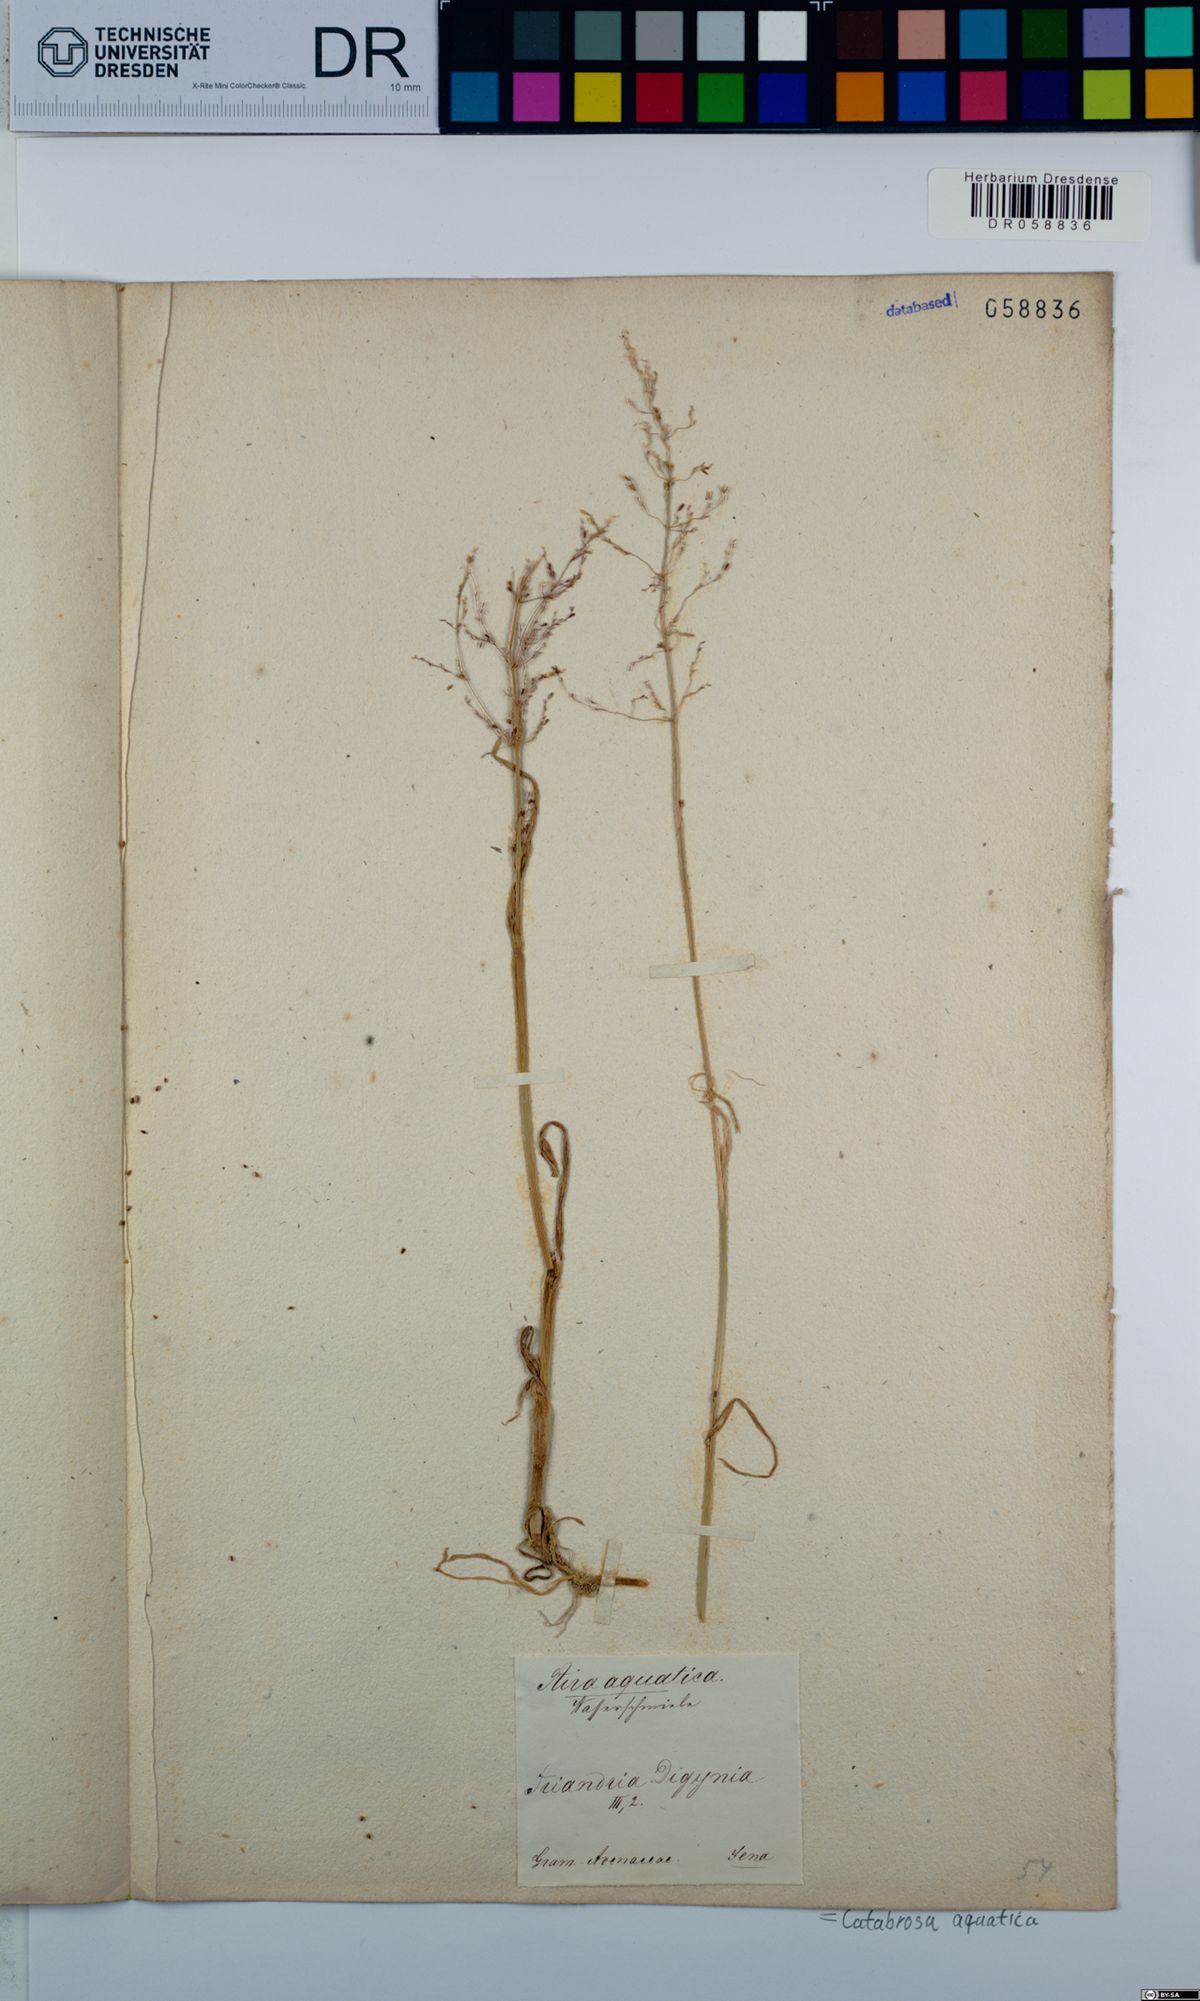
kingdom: Plantae
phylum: Tracheophyta
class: Liliopsida
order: Poales
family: Poaceae
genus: Catabrosa
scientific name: Catabrosa aquatica
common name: Whorl-grass
